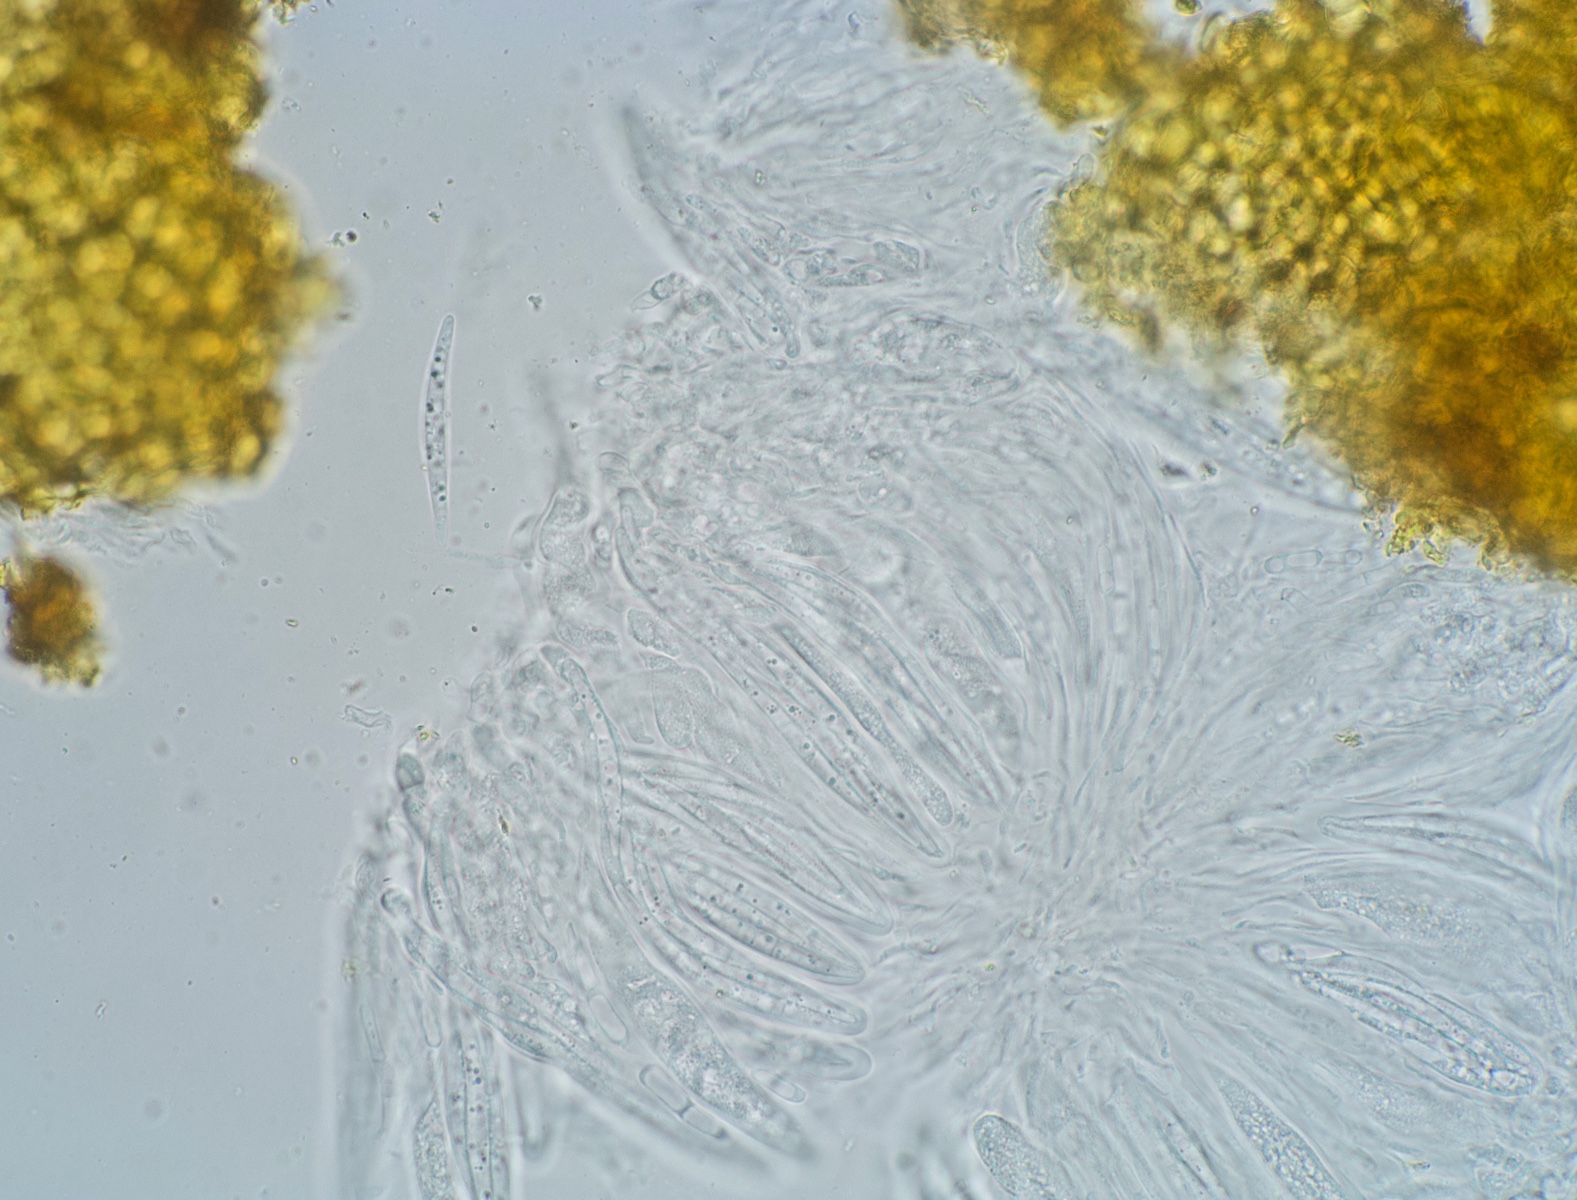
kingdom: Fungi
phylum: Ascomycota
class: Dothideomycetes
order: Tubeufiales
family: Tubeufiaceae
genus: Tubeufia
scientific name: Tubeufia cerea
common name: gulbrun tyksækkrukke
